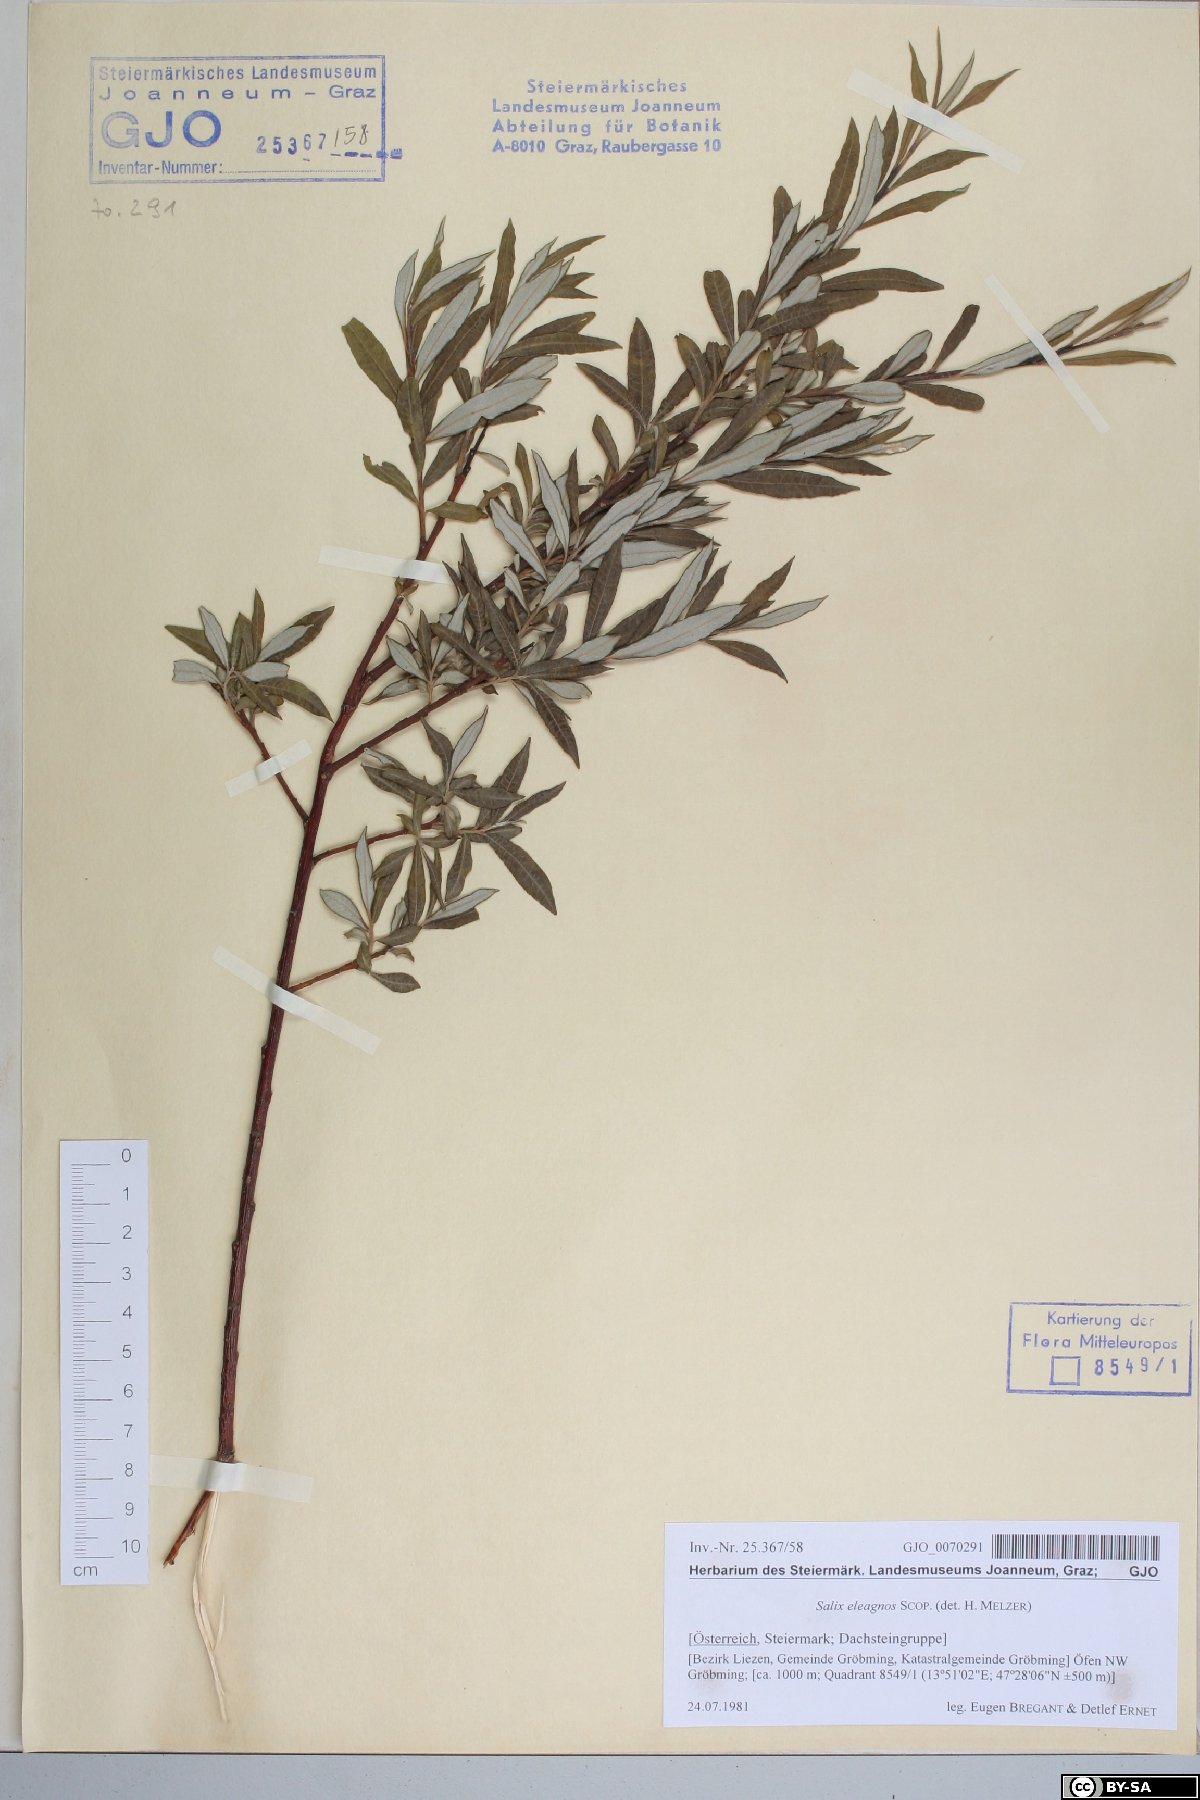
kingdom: Plantae
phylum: Tracheophyta
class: Magnoliopsida
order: Malpighiales
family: Salicaceae
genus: Salix
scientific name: Salix eleagnos
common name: Elaeagnus willow
